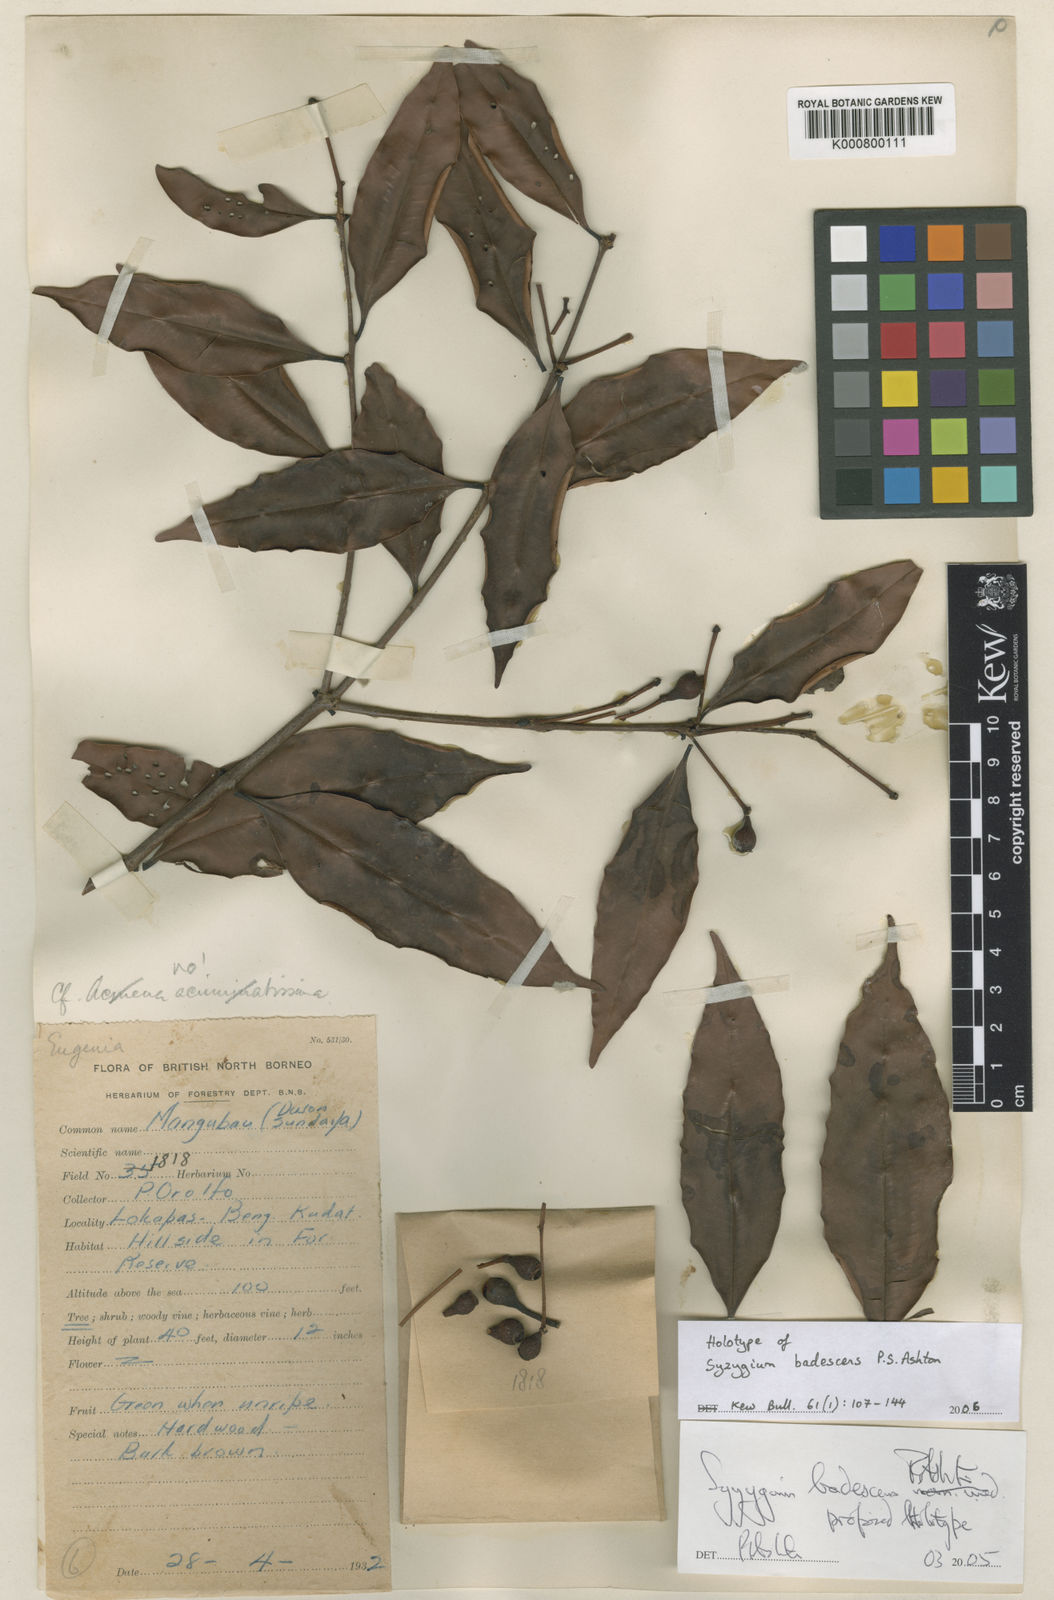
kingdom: Plantae
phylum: Tracheophyta
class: Magnoliopsida
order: Myrtales
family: Myrtaceae
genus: Syzygium
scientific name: Syzygium badescens
